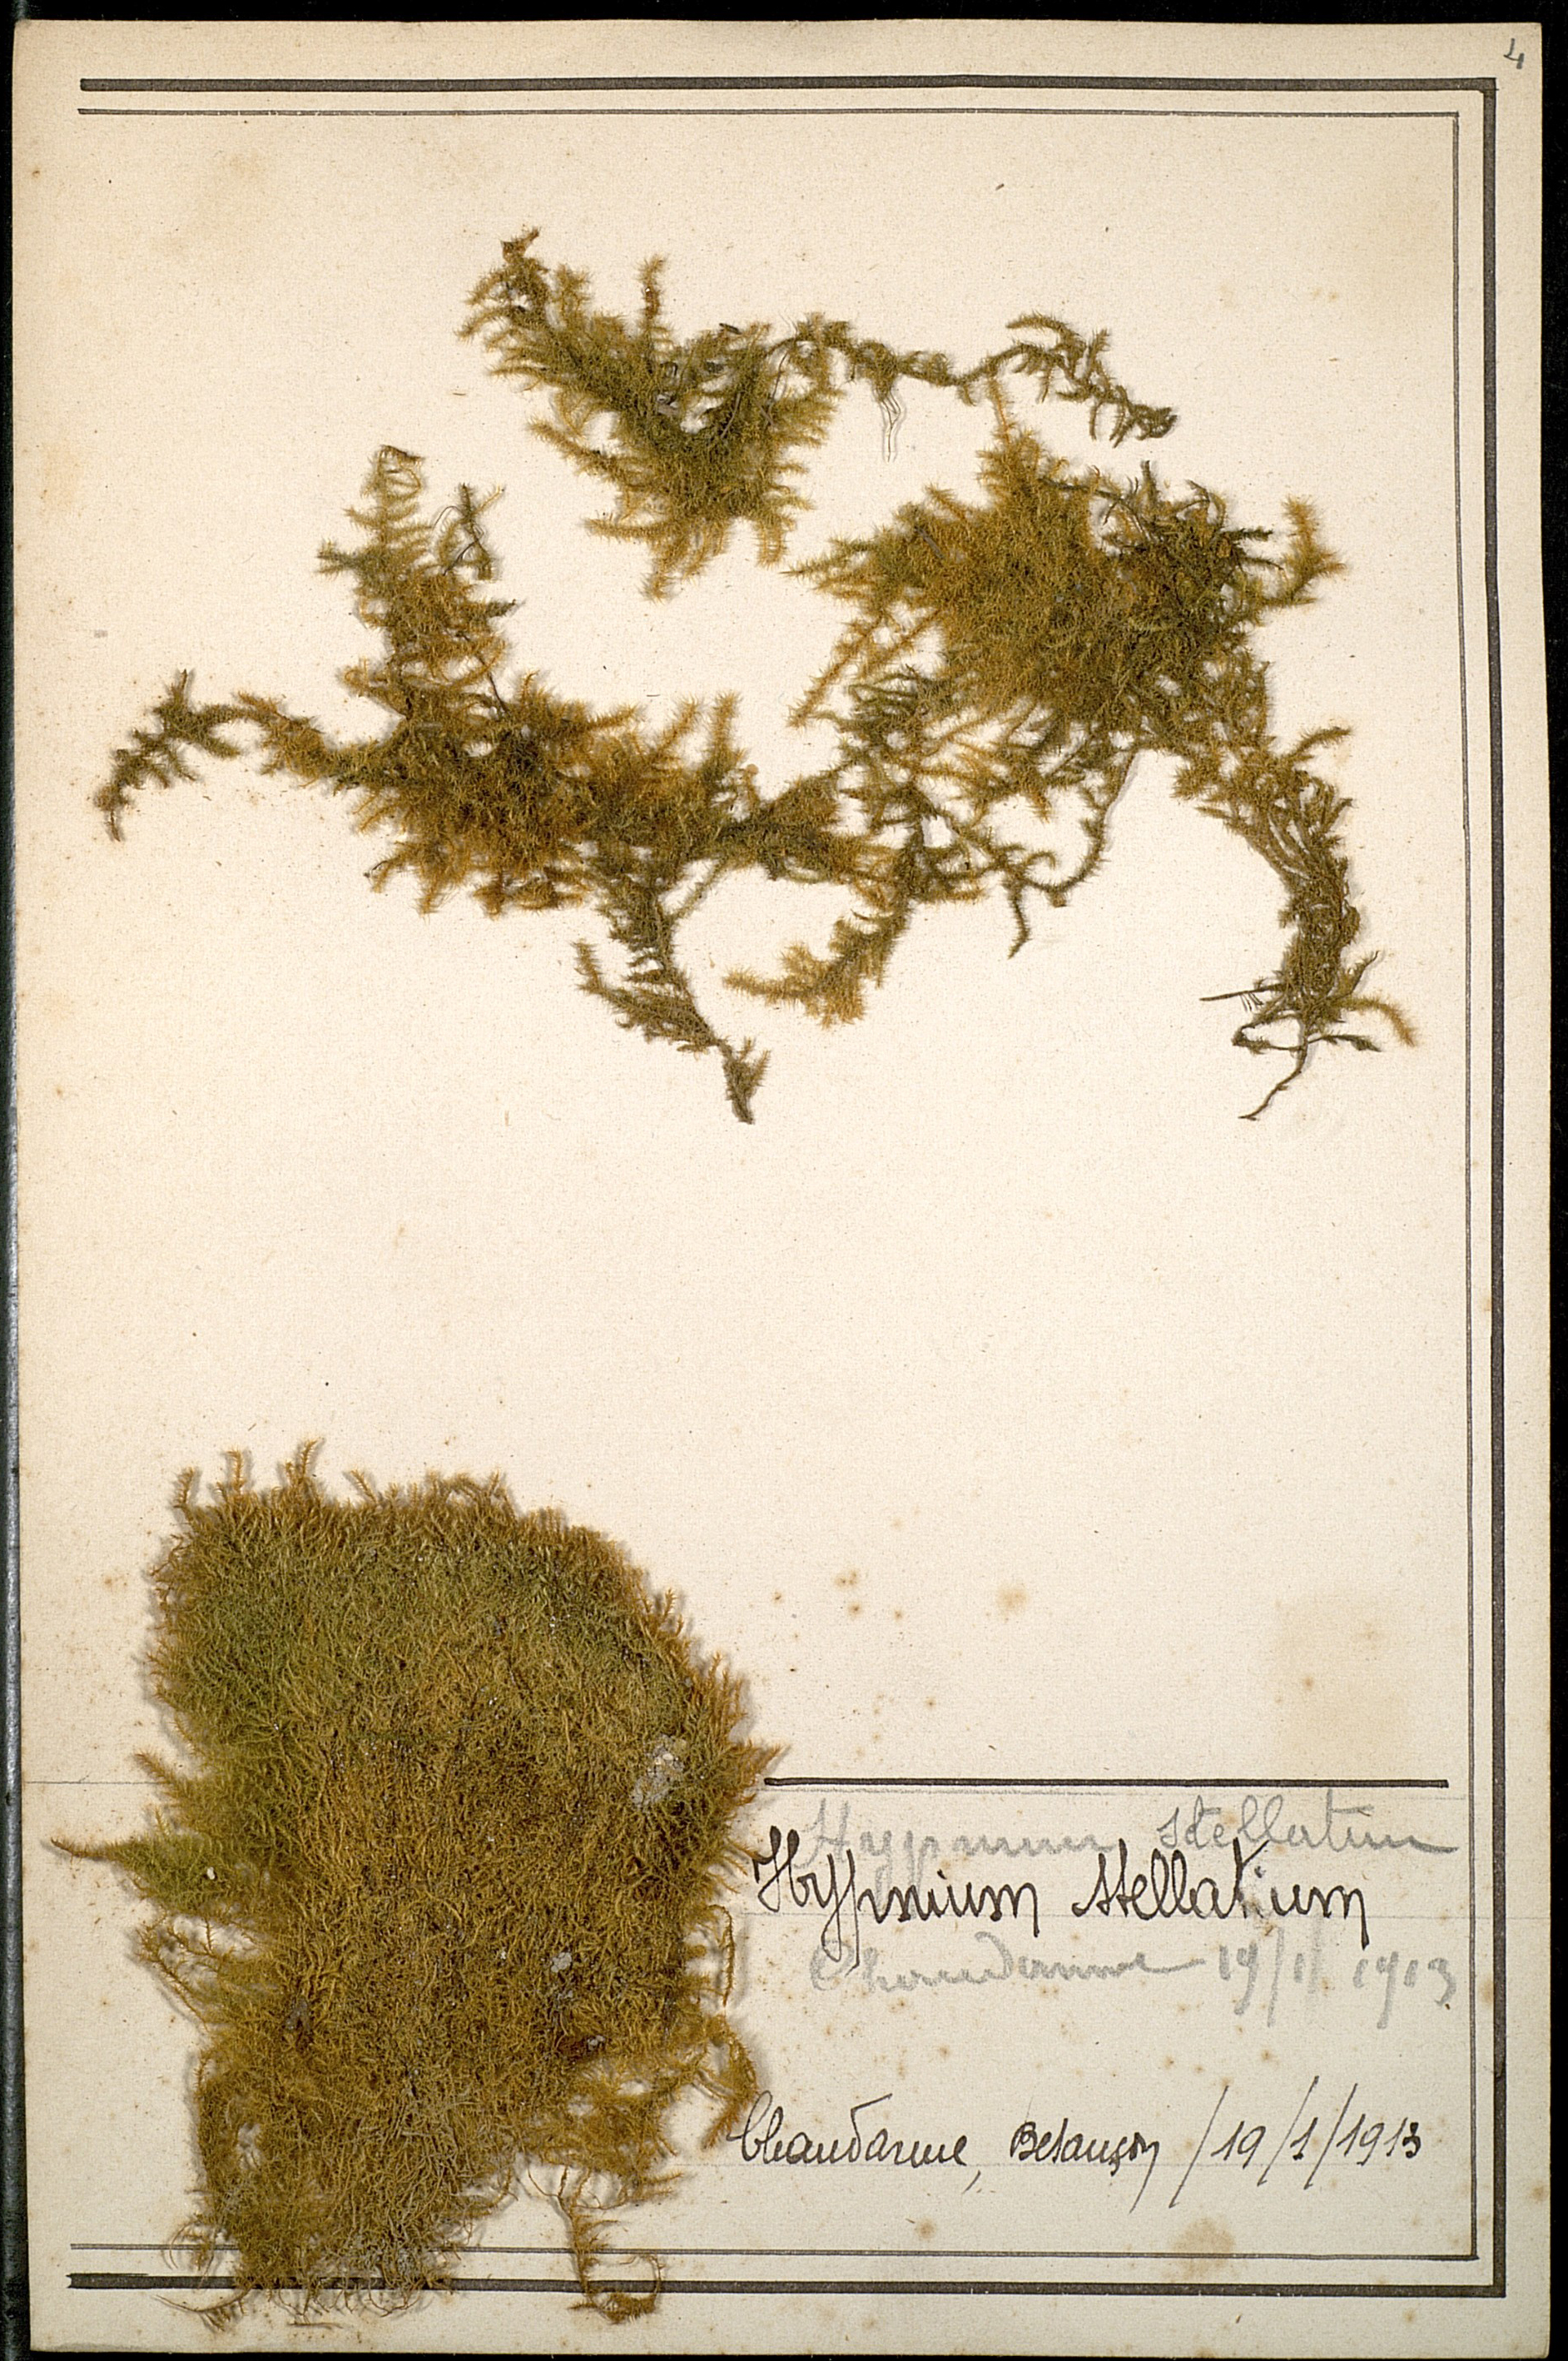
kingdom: Plantae
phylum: Bryophyta
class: Bryopsida
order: Hypnales
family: Amblystegiaceae
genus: Campylium
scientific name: Campylium stellatum
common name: Yellow starry fen moss
